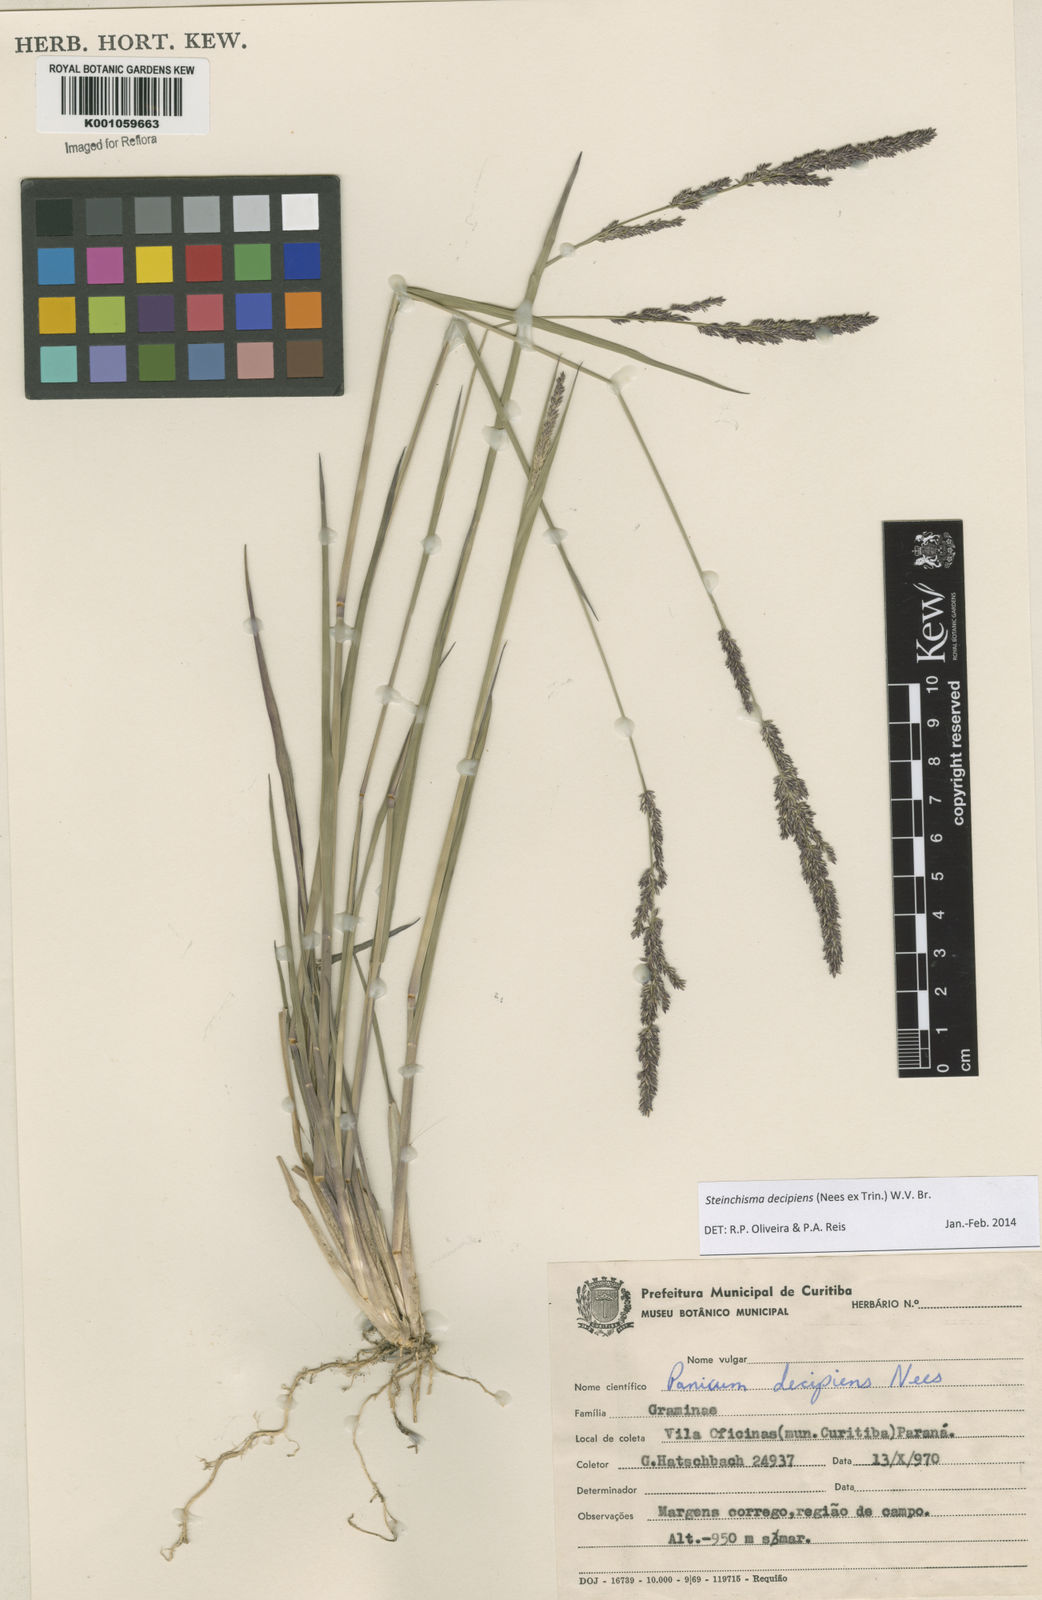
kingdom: Plantae
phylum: Tracheophyta
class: Liliopsida
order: Poales
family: Poaceae
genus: Steinchisma
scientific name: Steinchisma decipiens
